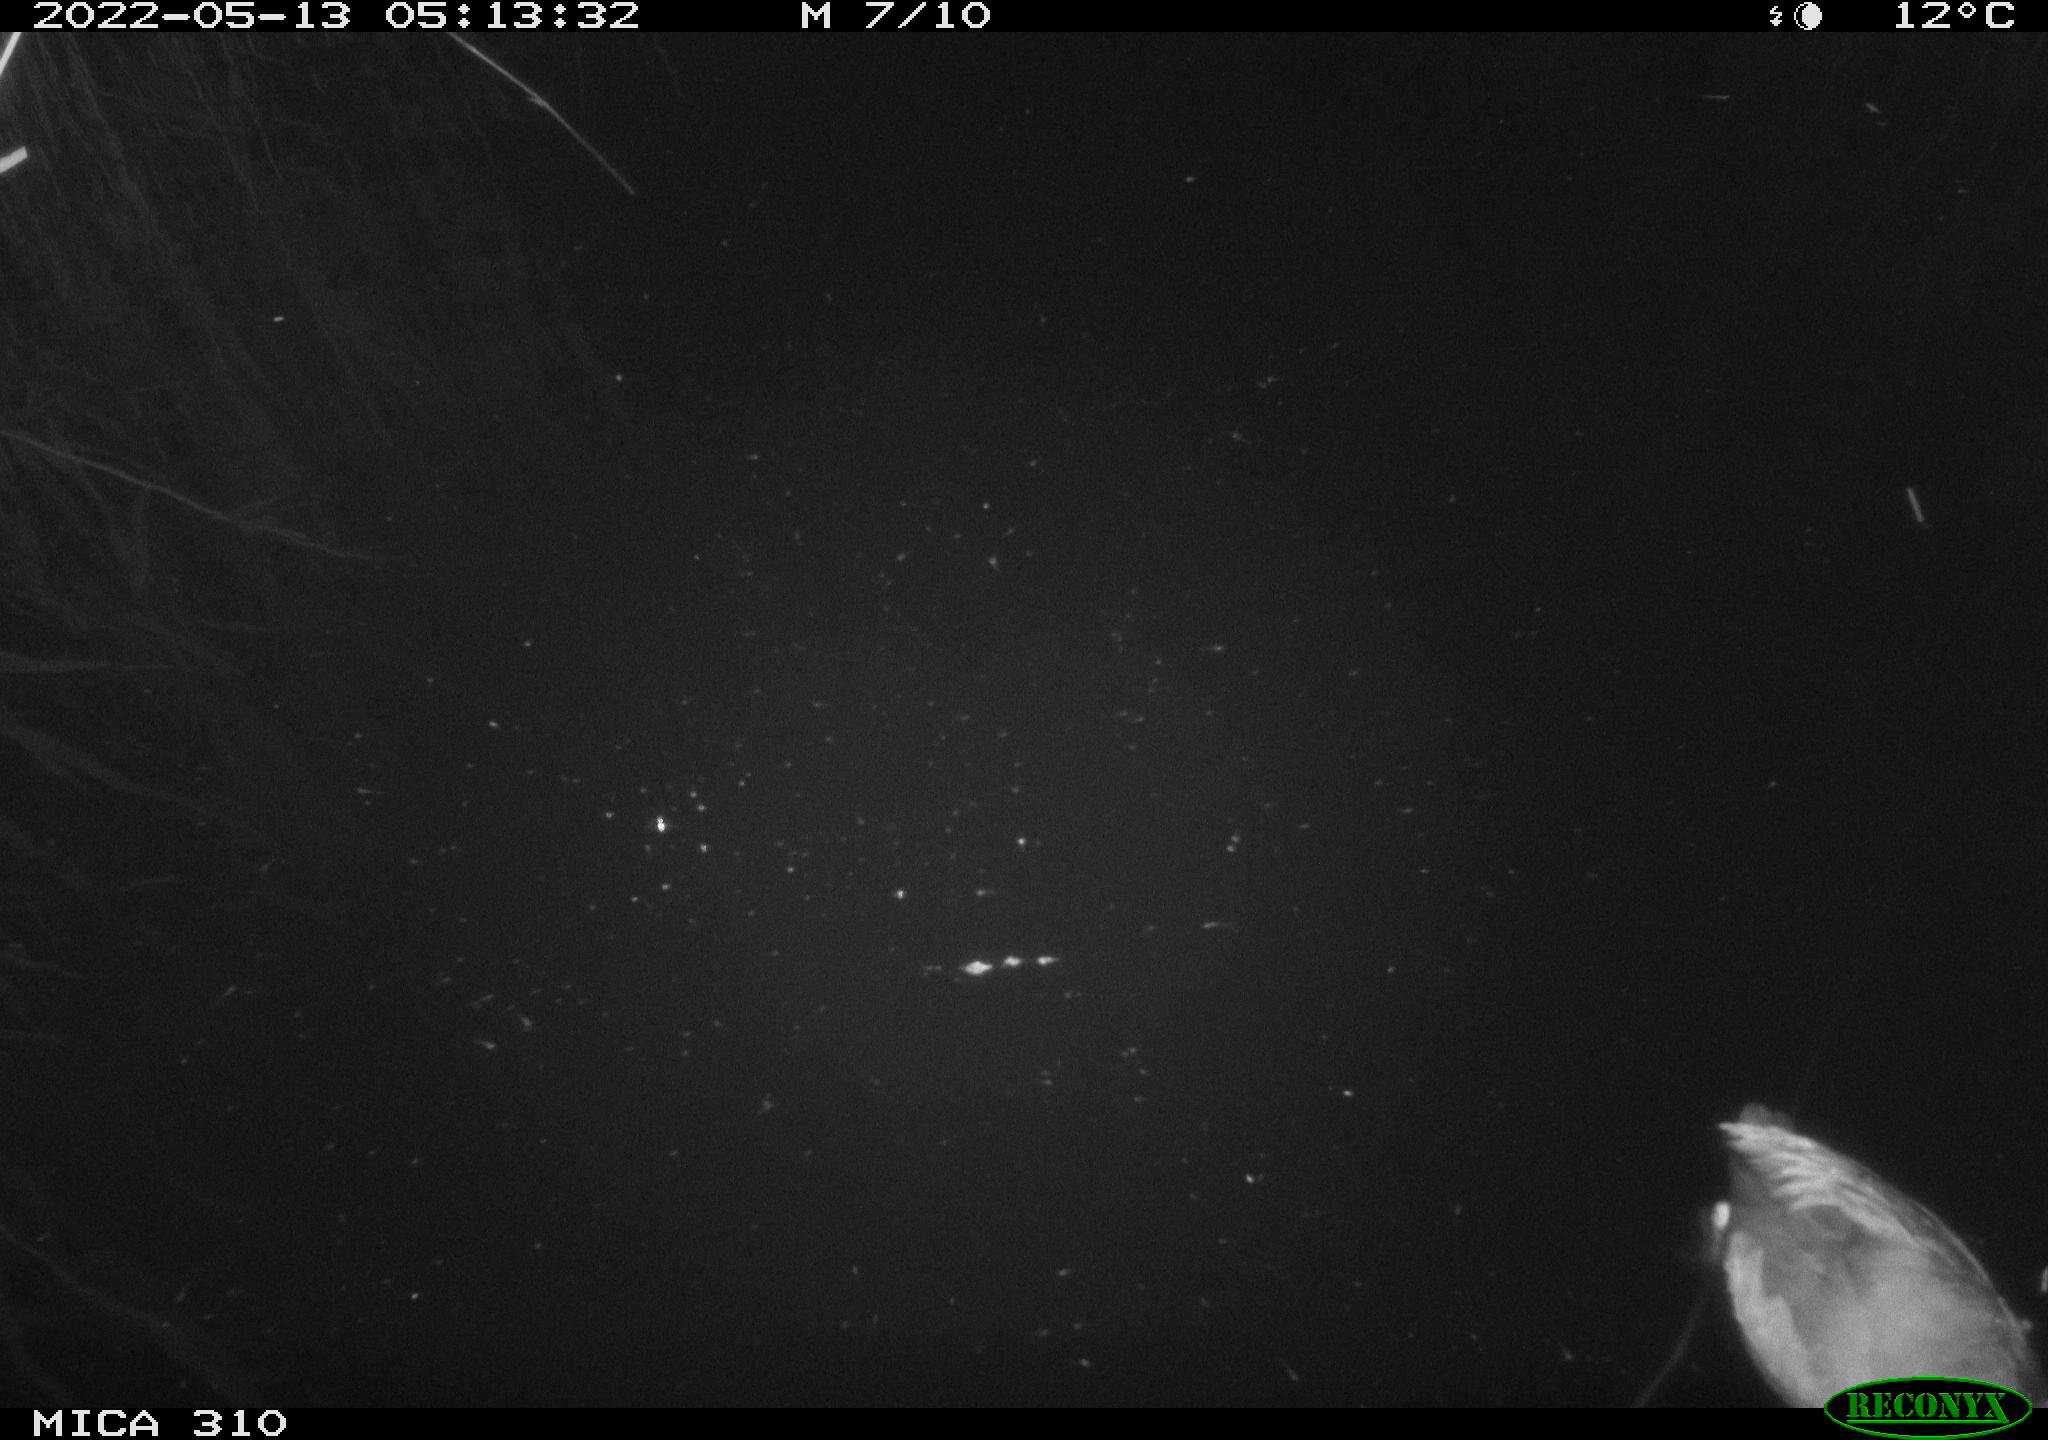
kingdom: Animalia
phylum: Chordata
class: Aves
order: Gruiformes
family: Rallidae
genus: Fulica
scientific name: Fulica atra
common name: Eurasian coot
